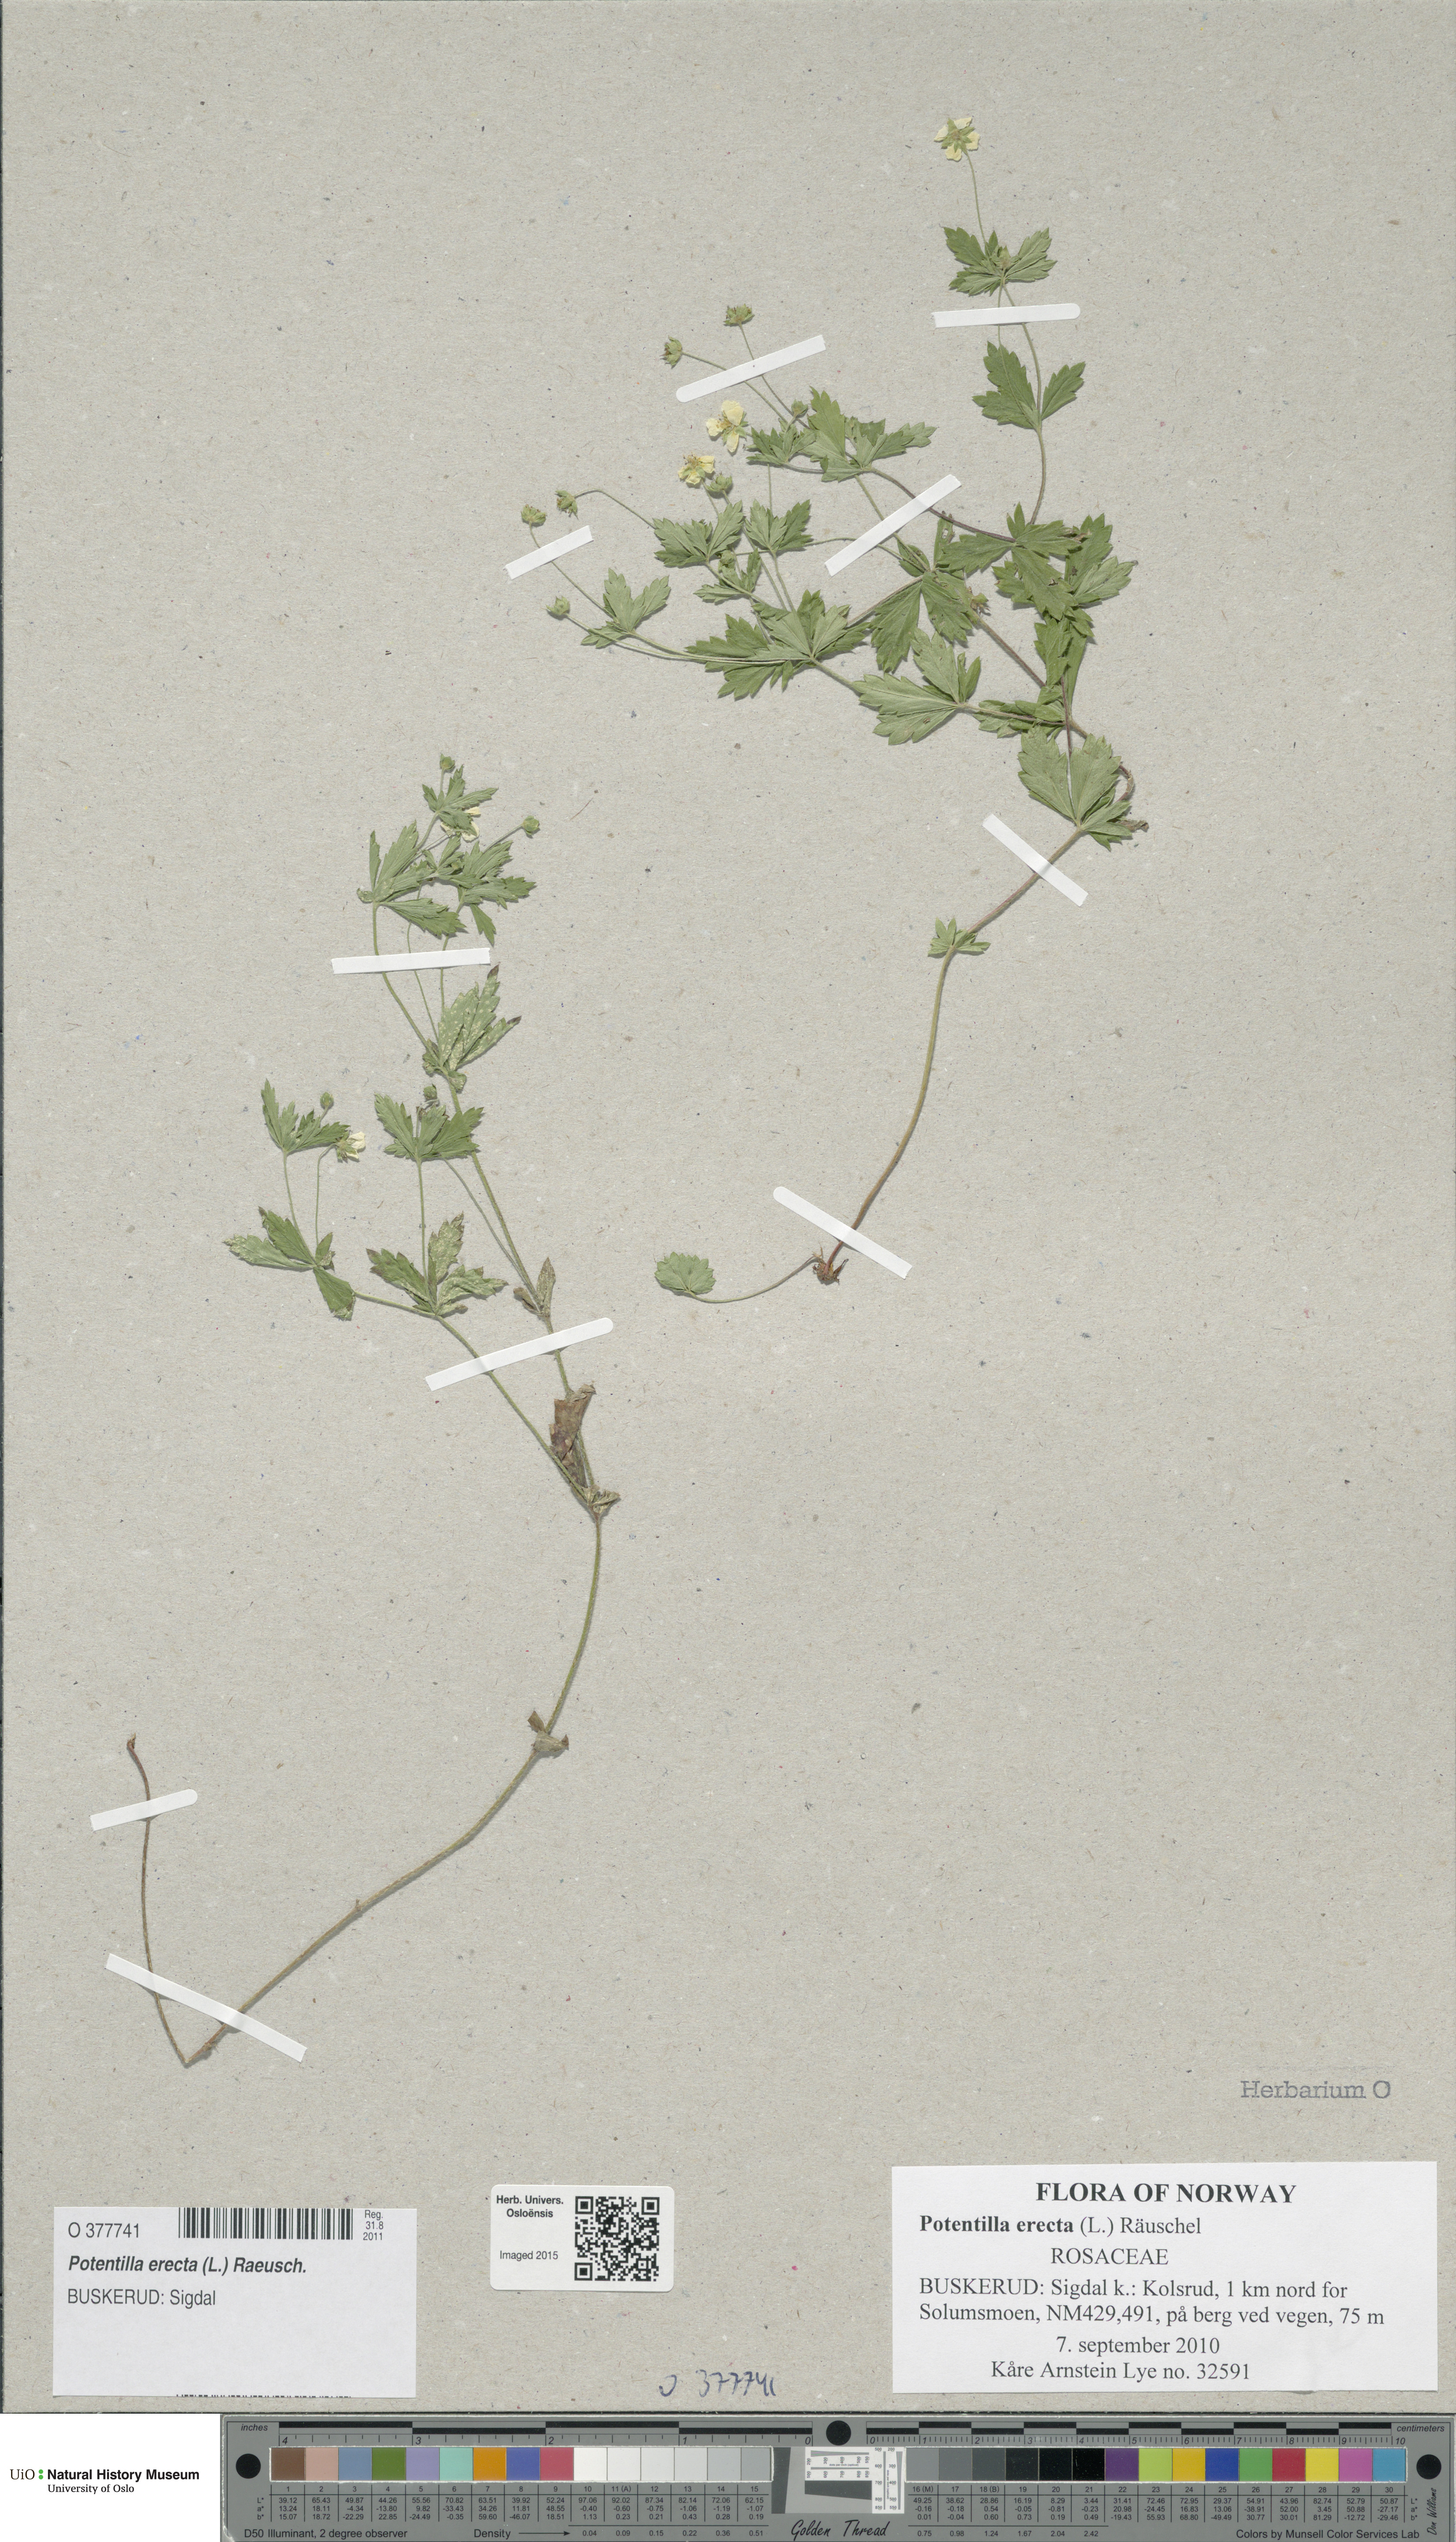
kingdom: Plantae
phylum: Tracheophyta
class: Magnoliopsida
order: Rosales
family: Rosaceae
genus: Potentilla
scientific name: Potentilla erecta
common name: Tormentil
